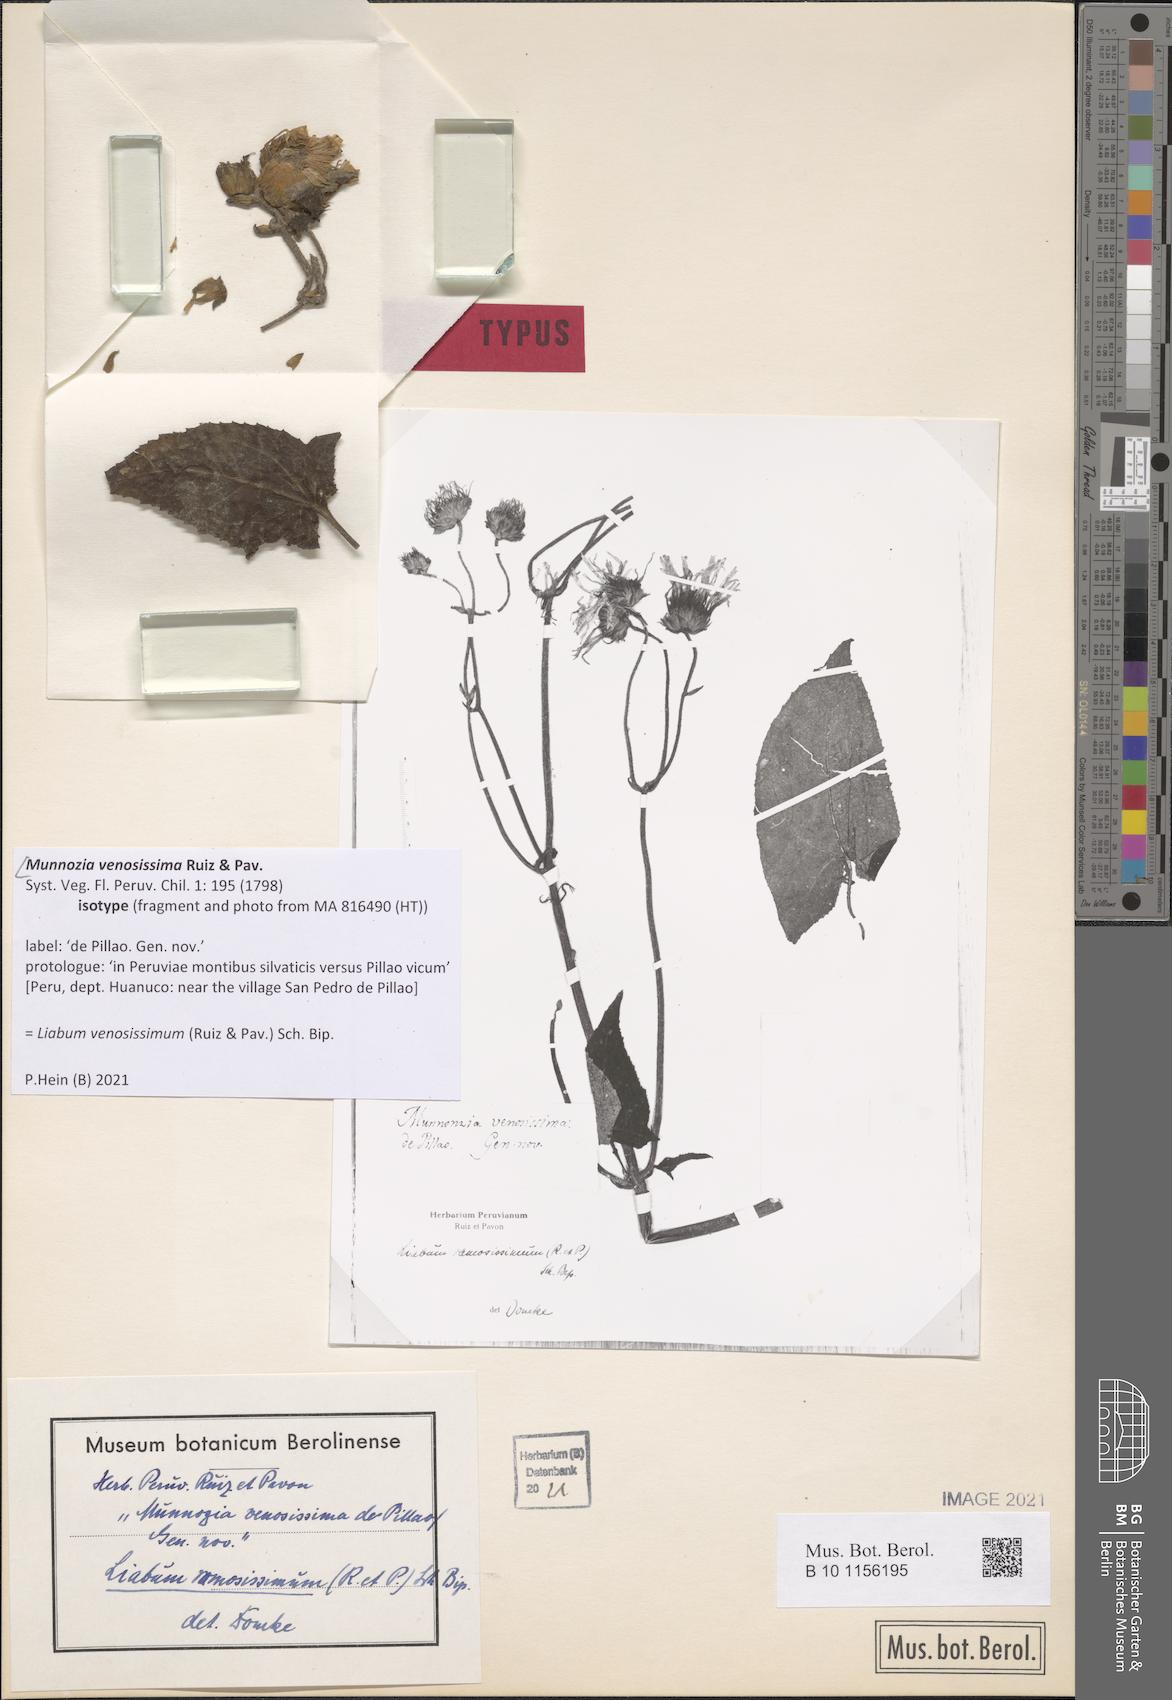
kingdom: Plantae
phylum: Tracheophyta
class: Magnoliopsida
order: Asterales
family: Asteraceae
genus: Munnozia
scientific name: Munnozia venosissima
